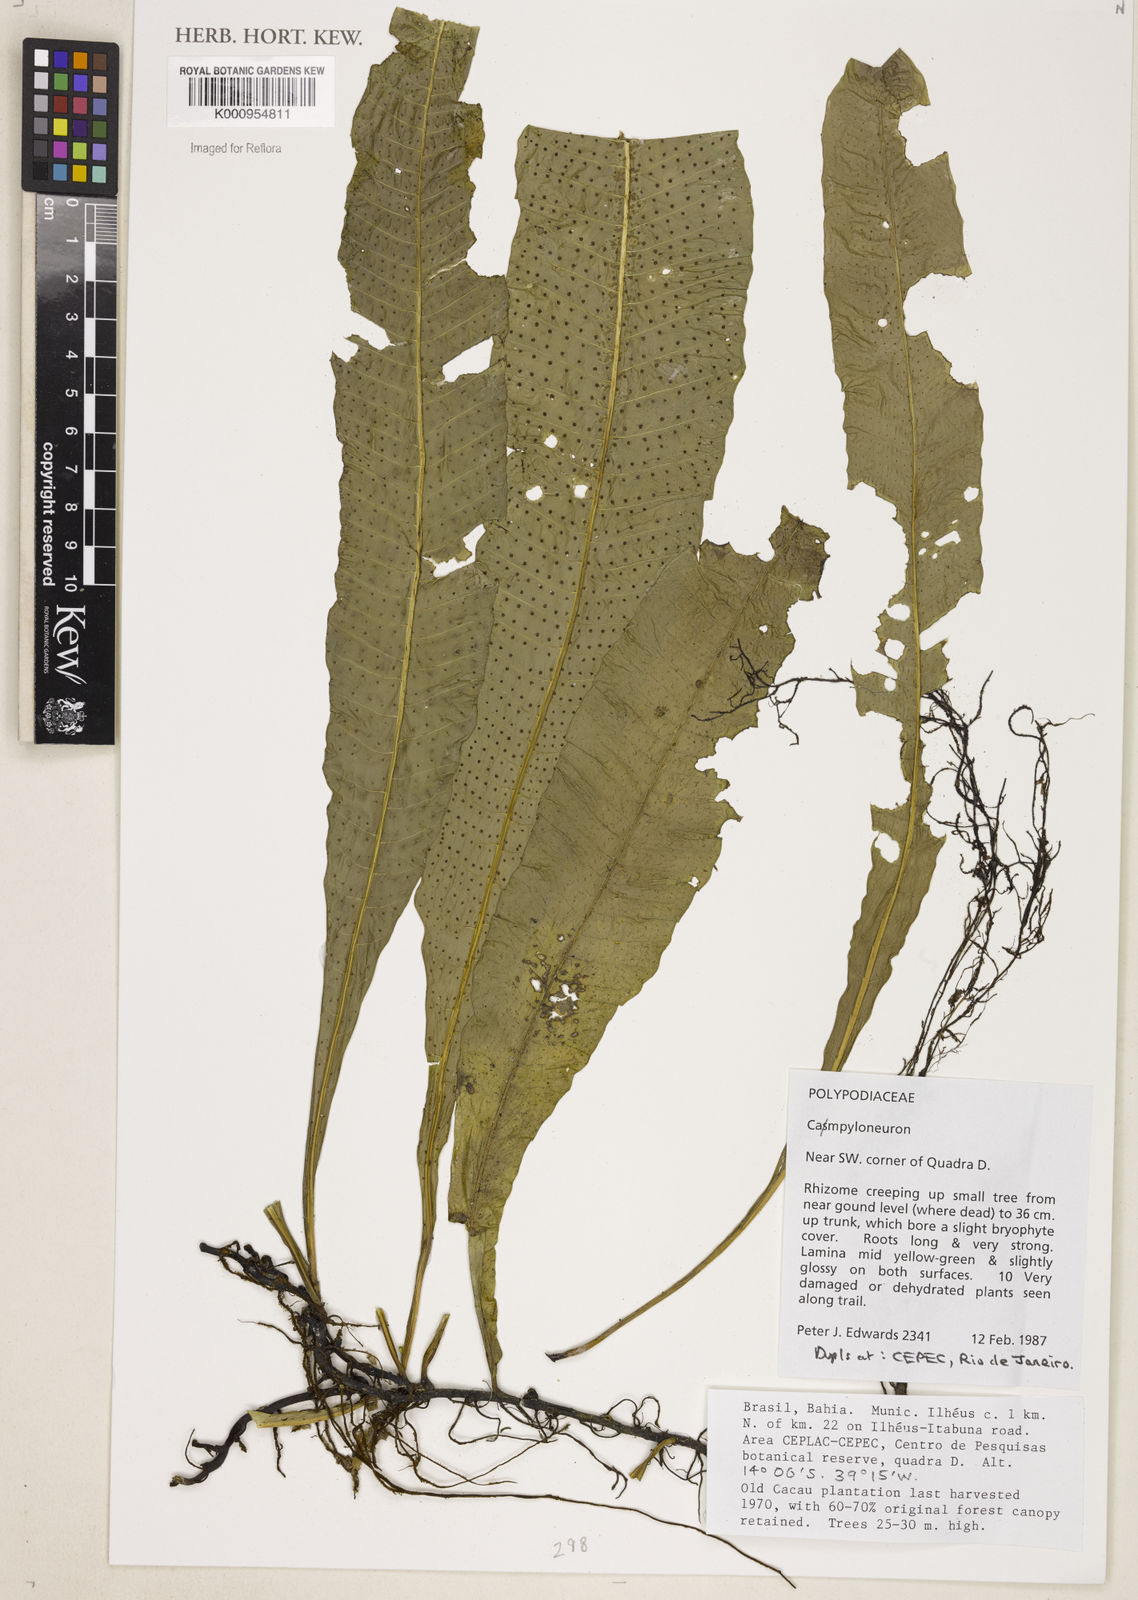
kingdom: Plantae
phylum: Tracheophyta
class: Polypodiopsida
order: Polypodiales
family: Polypodiaceae
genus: Campyloneurum
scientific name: Campyloneurum
